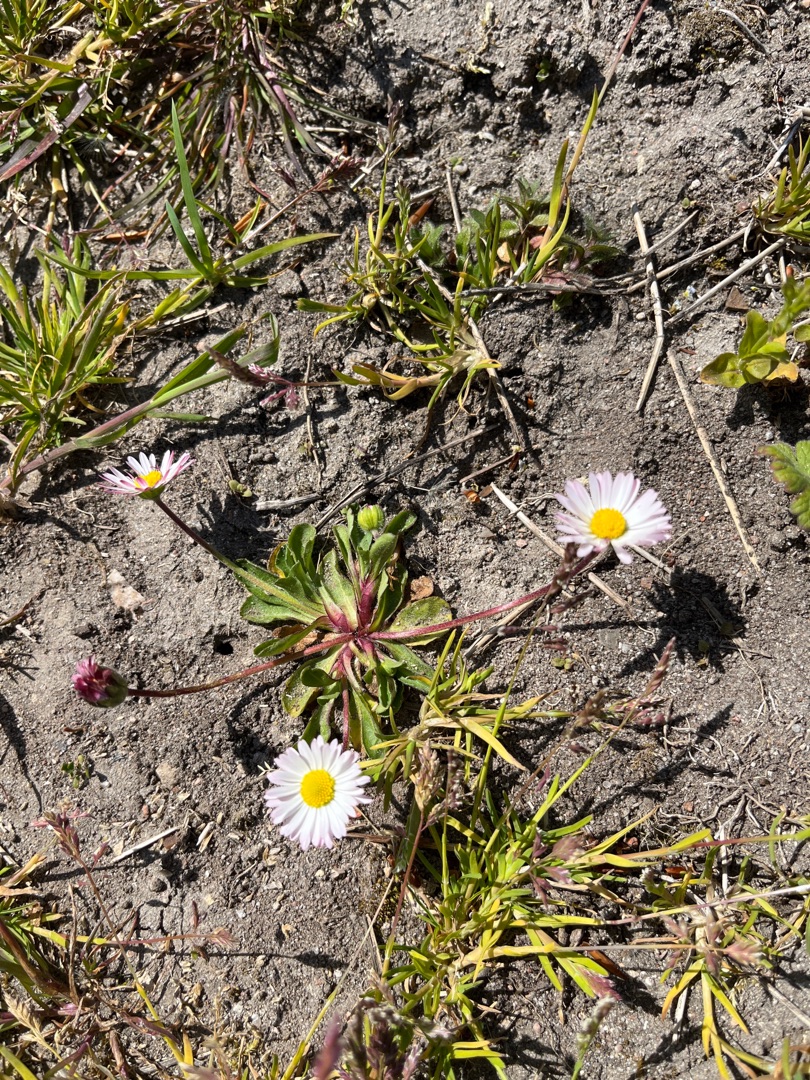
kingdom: Plantae
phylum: Tracheophyta
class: Magnoliopsida
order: Asterales
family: Asteraceae
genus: Bellis
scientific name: Bellis perennis
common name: Tusindfryd
